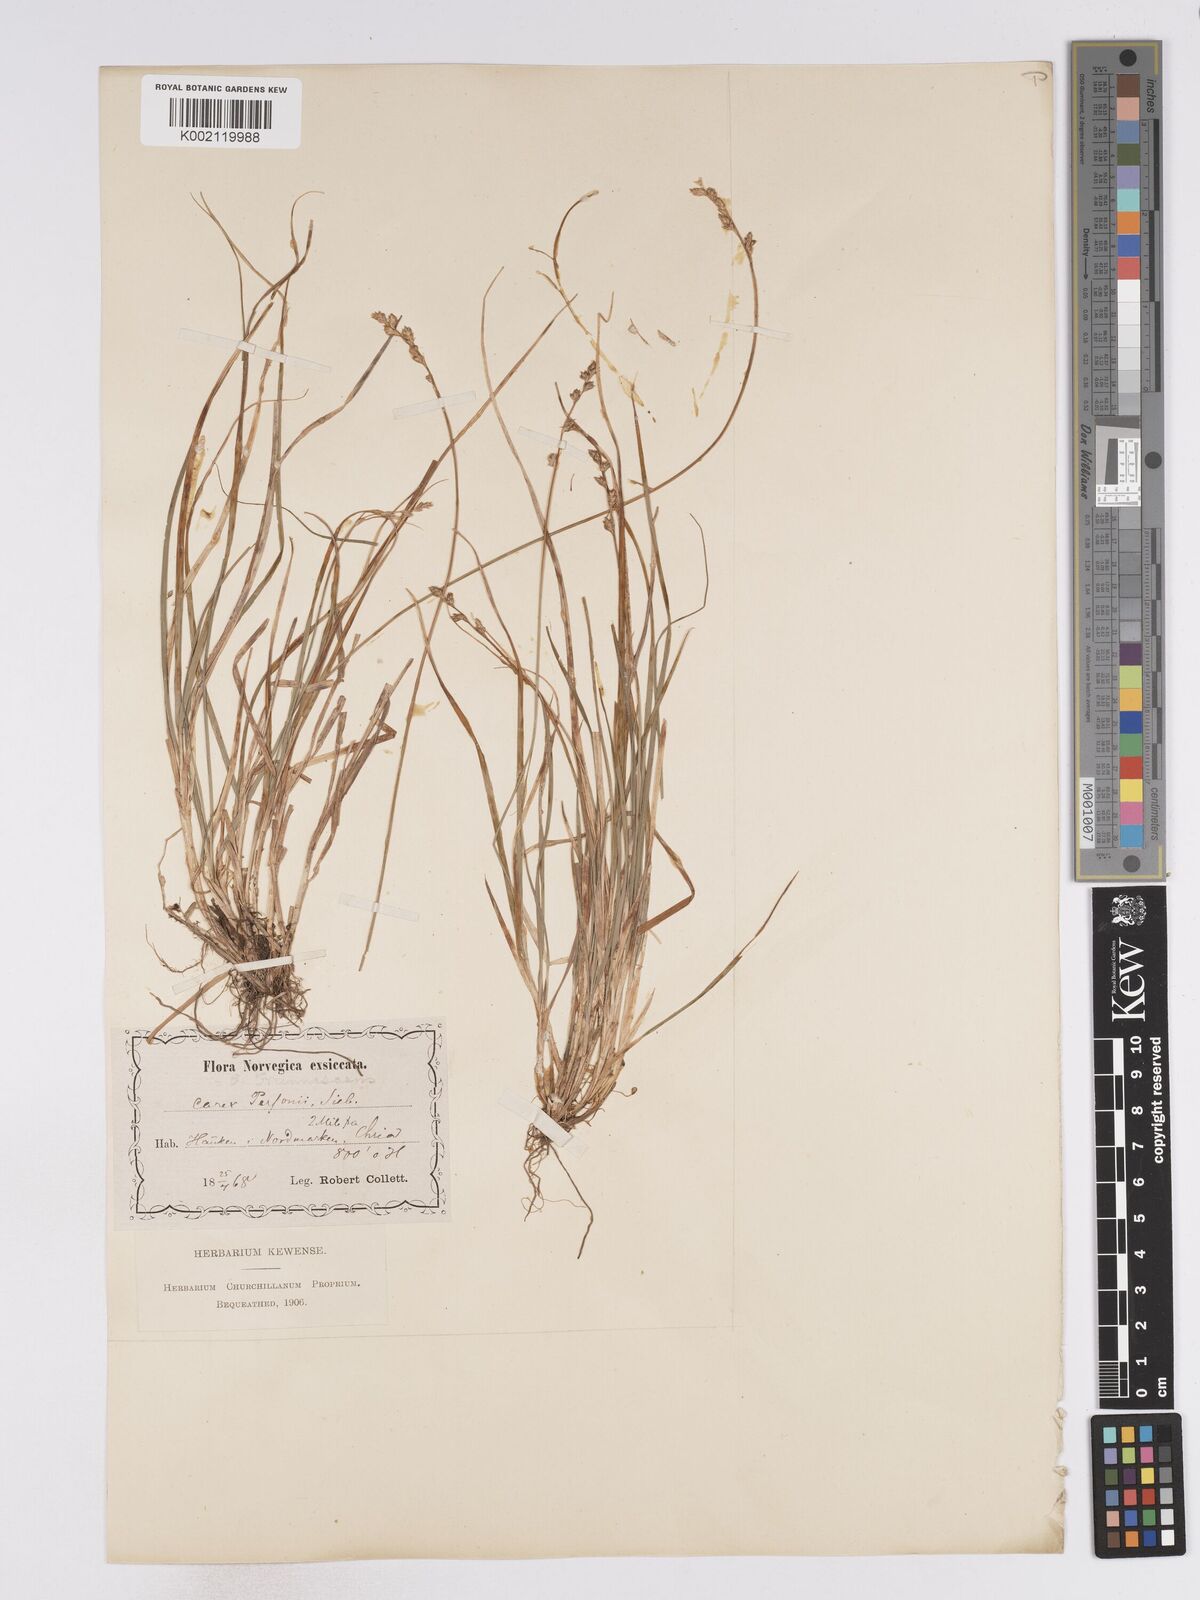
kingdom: Plantae
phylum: Tracheophyta
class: Liliopsida
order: Poales
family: Cyperaceae
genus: Carex
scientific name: Carex brunnescens
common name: Brown sedge
